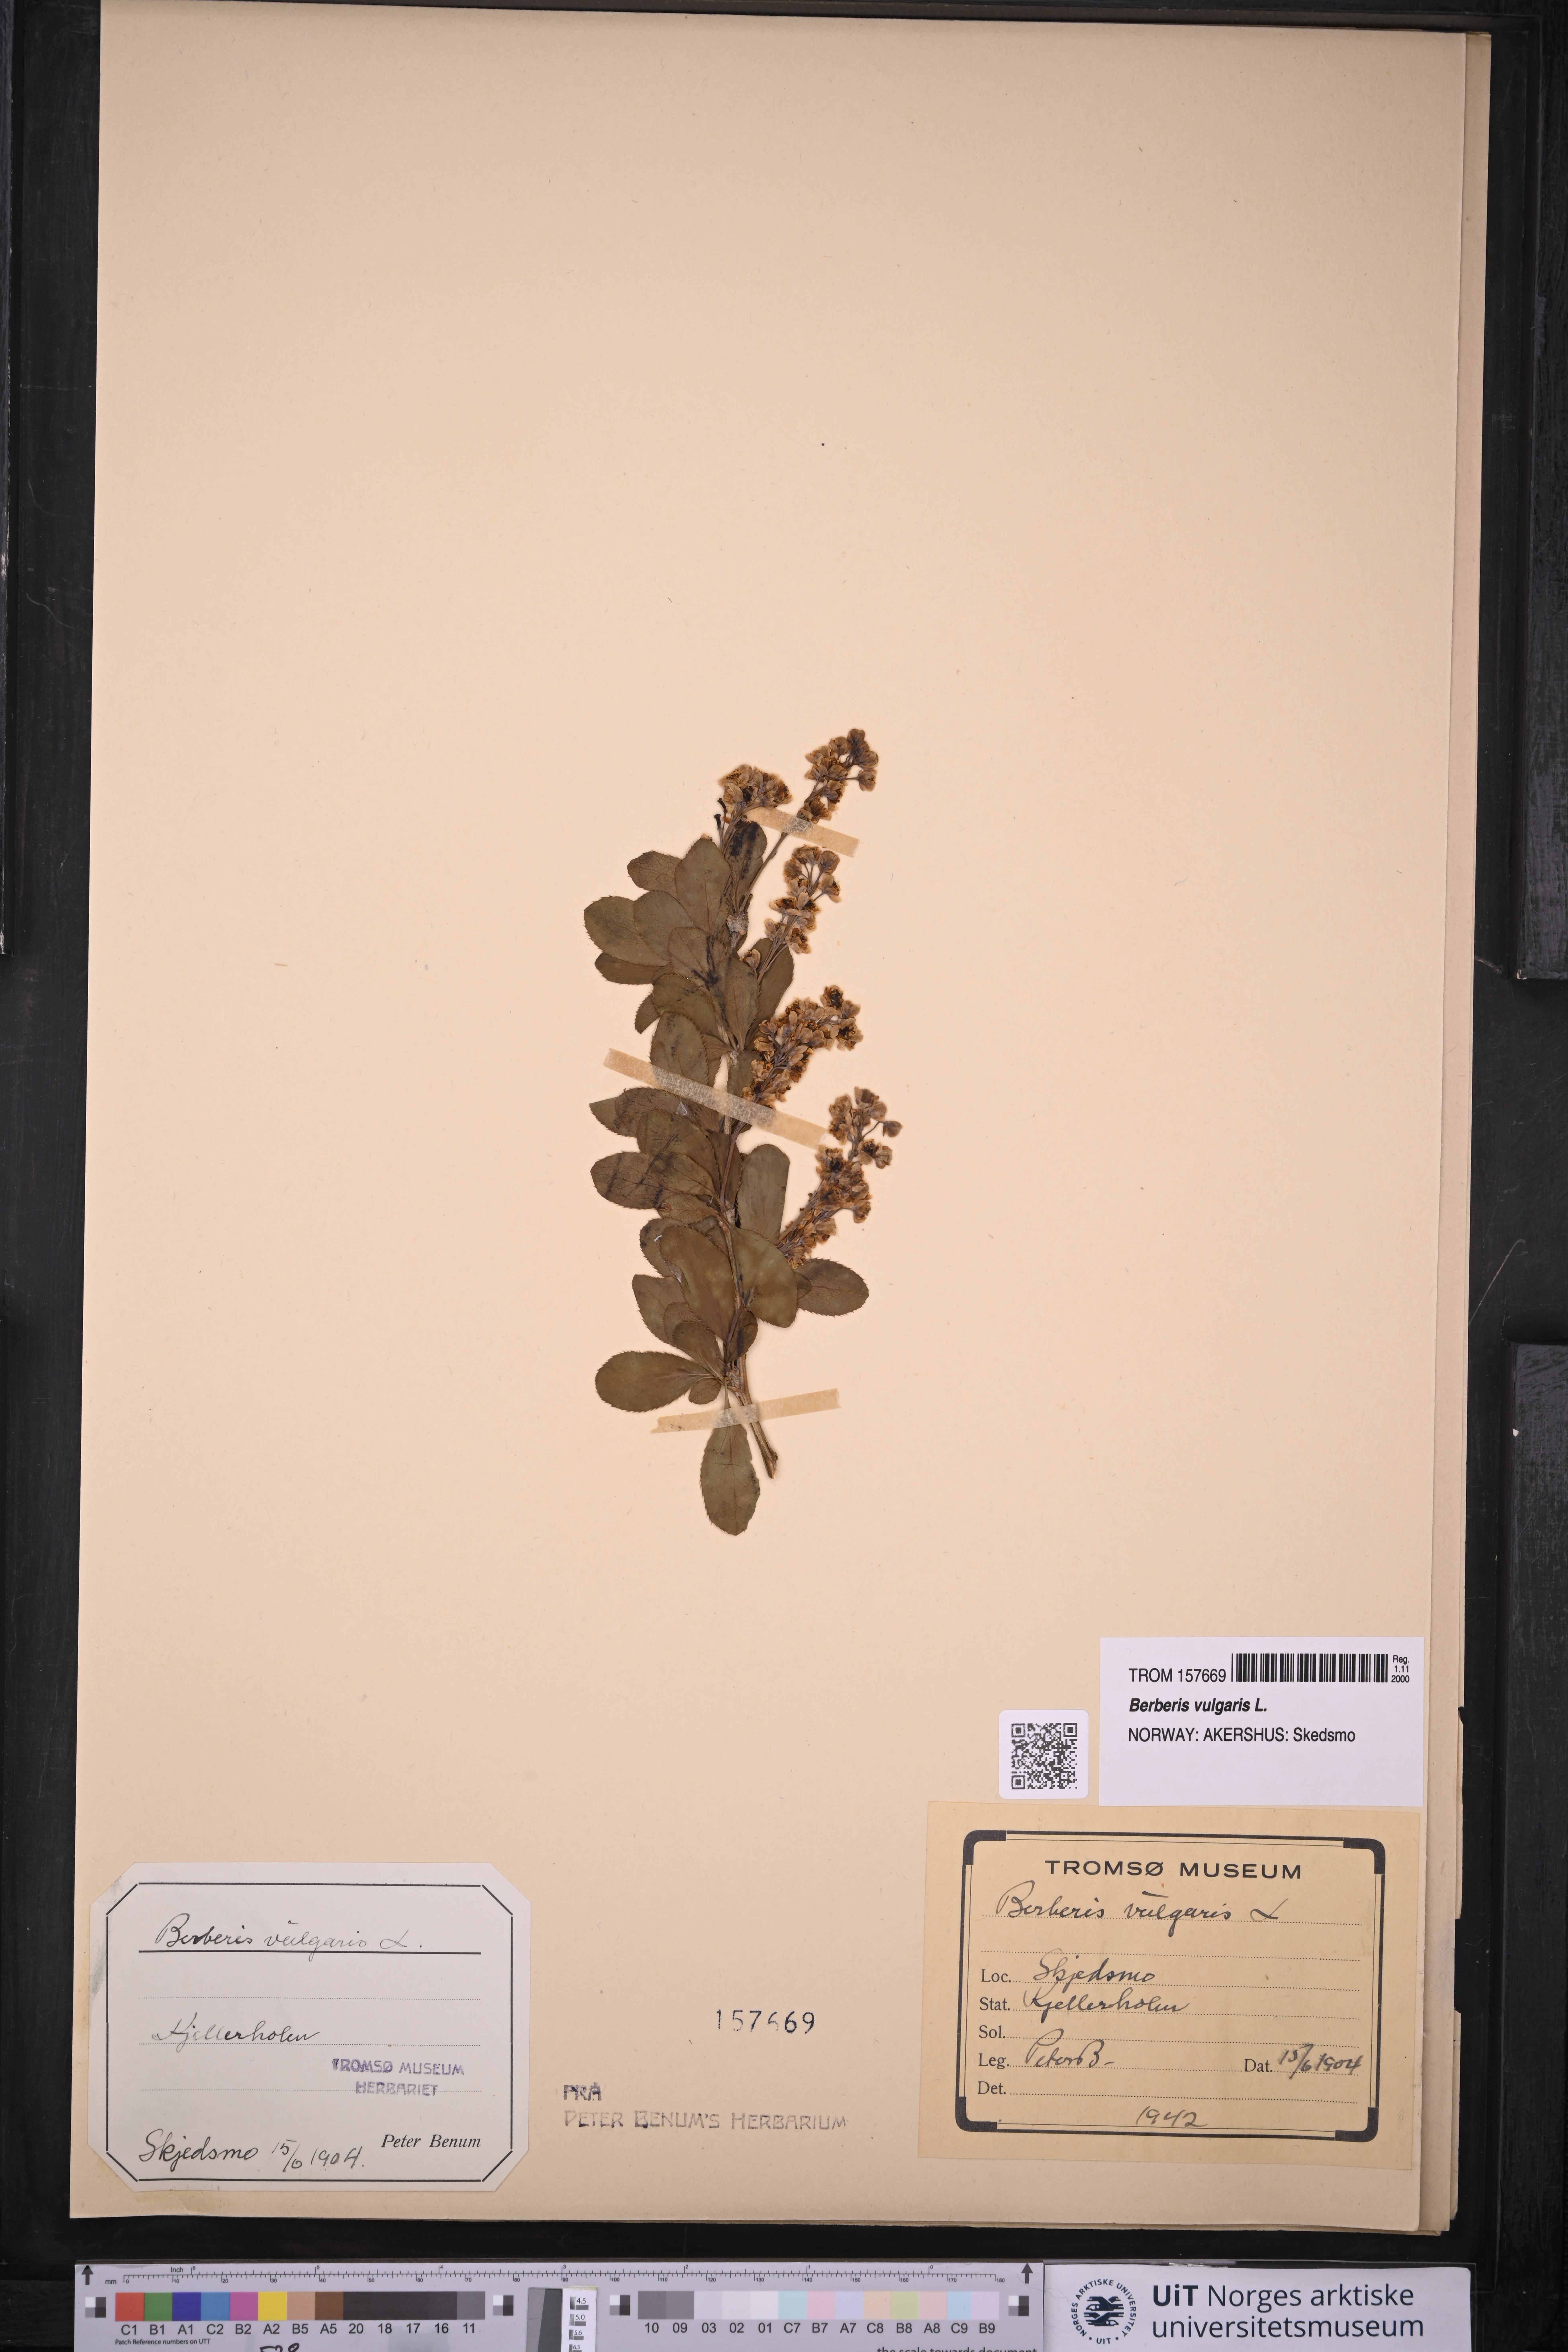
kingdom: Plantae
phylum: Tracheophyta
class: Magnoliopsida
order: Ranunculales
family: Berberidaceae
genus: Berberis
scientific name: Berberis vulgaris
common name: Barberry
